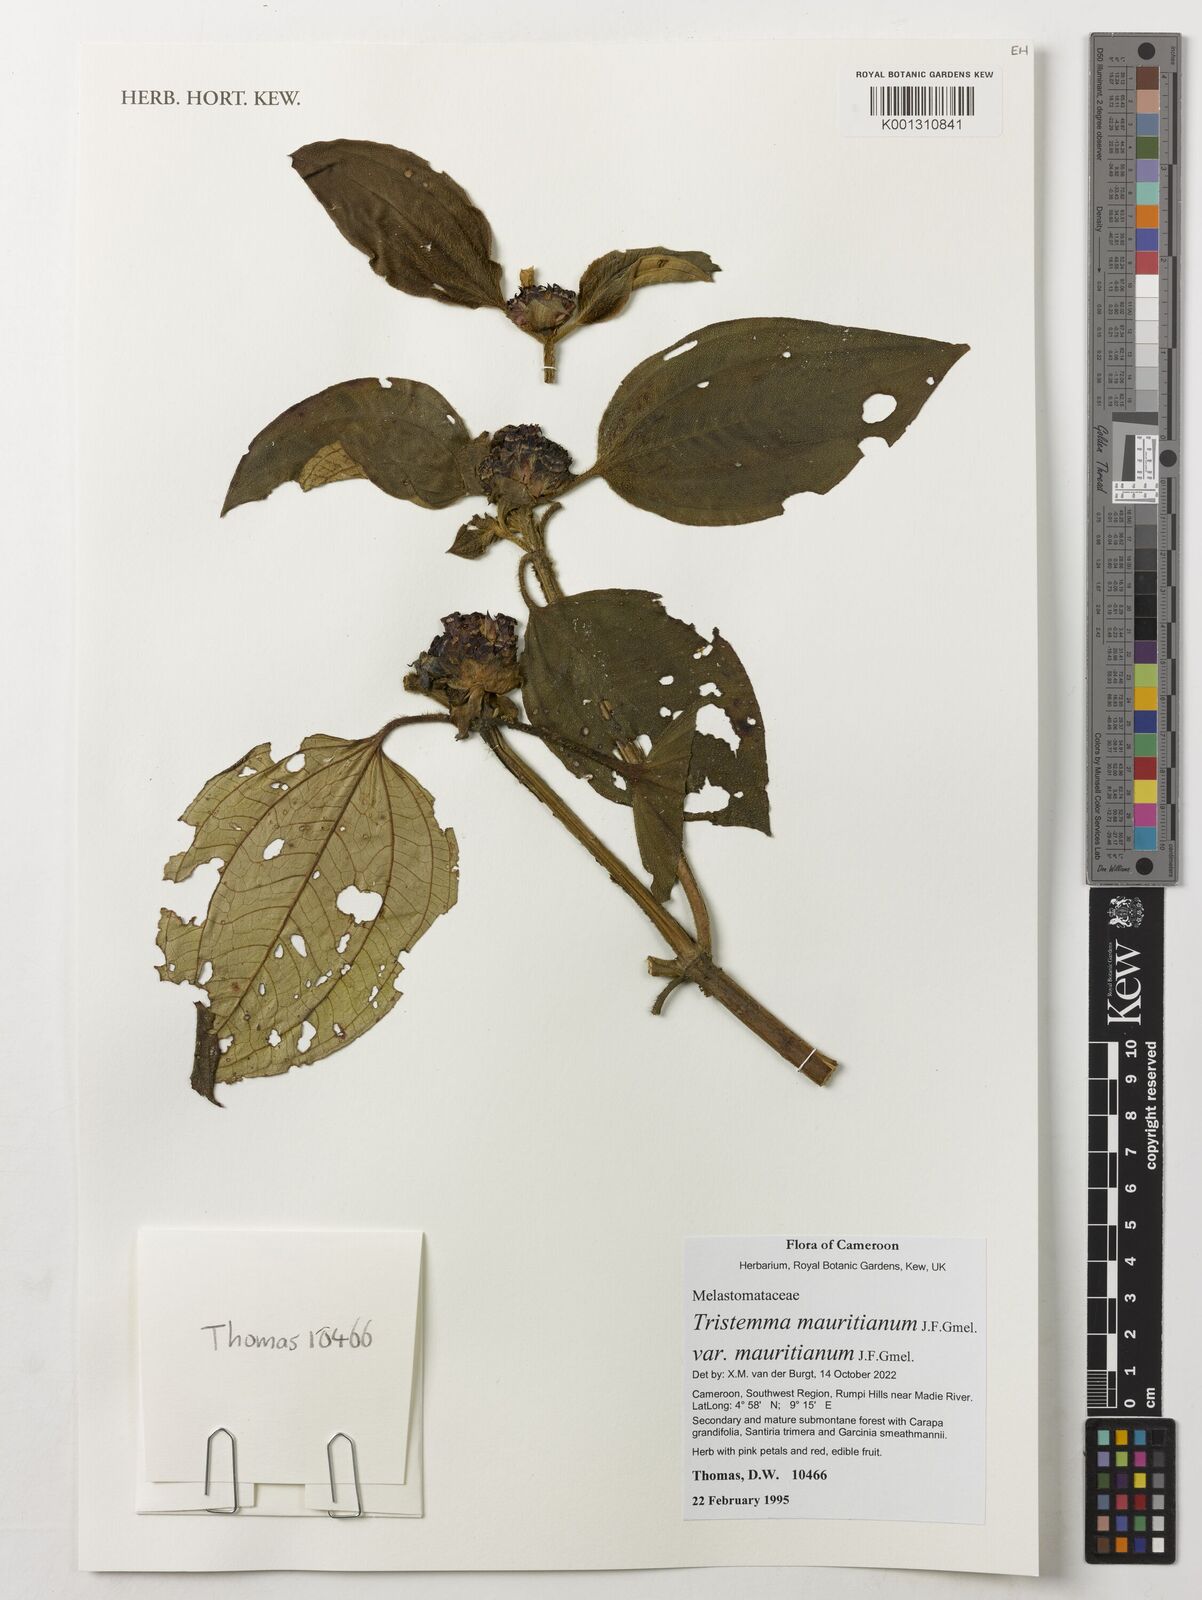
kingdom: Plantae
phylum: Tracheophyta
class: Magnoliopsida
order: Myrtales
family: Melastomataceae
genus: Tristemma
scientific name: Tristemma mauritianum
